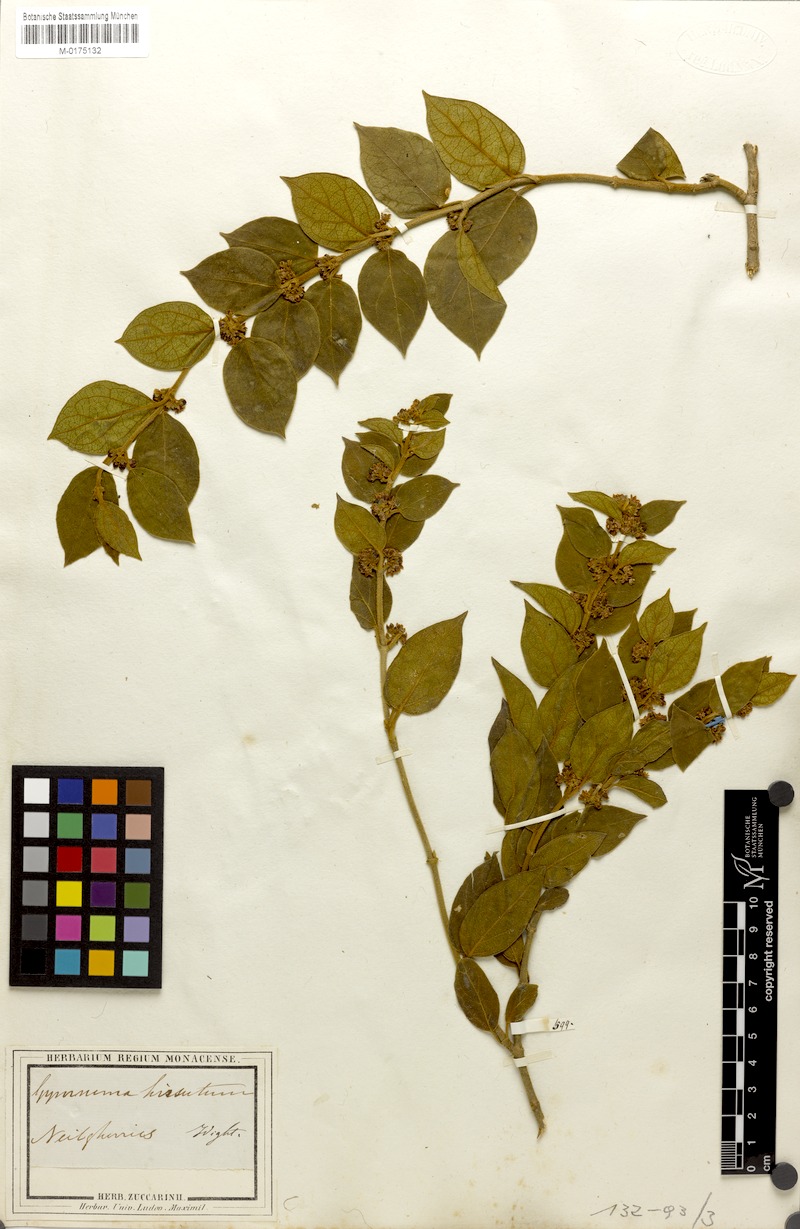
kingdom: Plantae
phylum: Tracheophyta
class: Magnoliopsida
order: Gentianales
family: Apocynaceae
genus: Gymnema
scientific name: Gymnema decaisneanum
